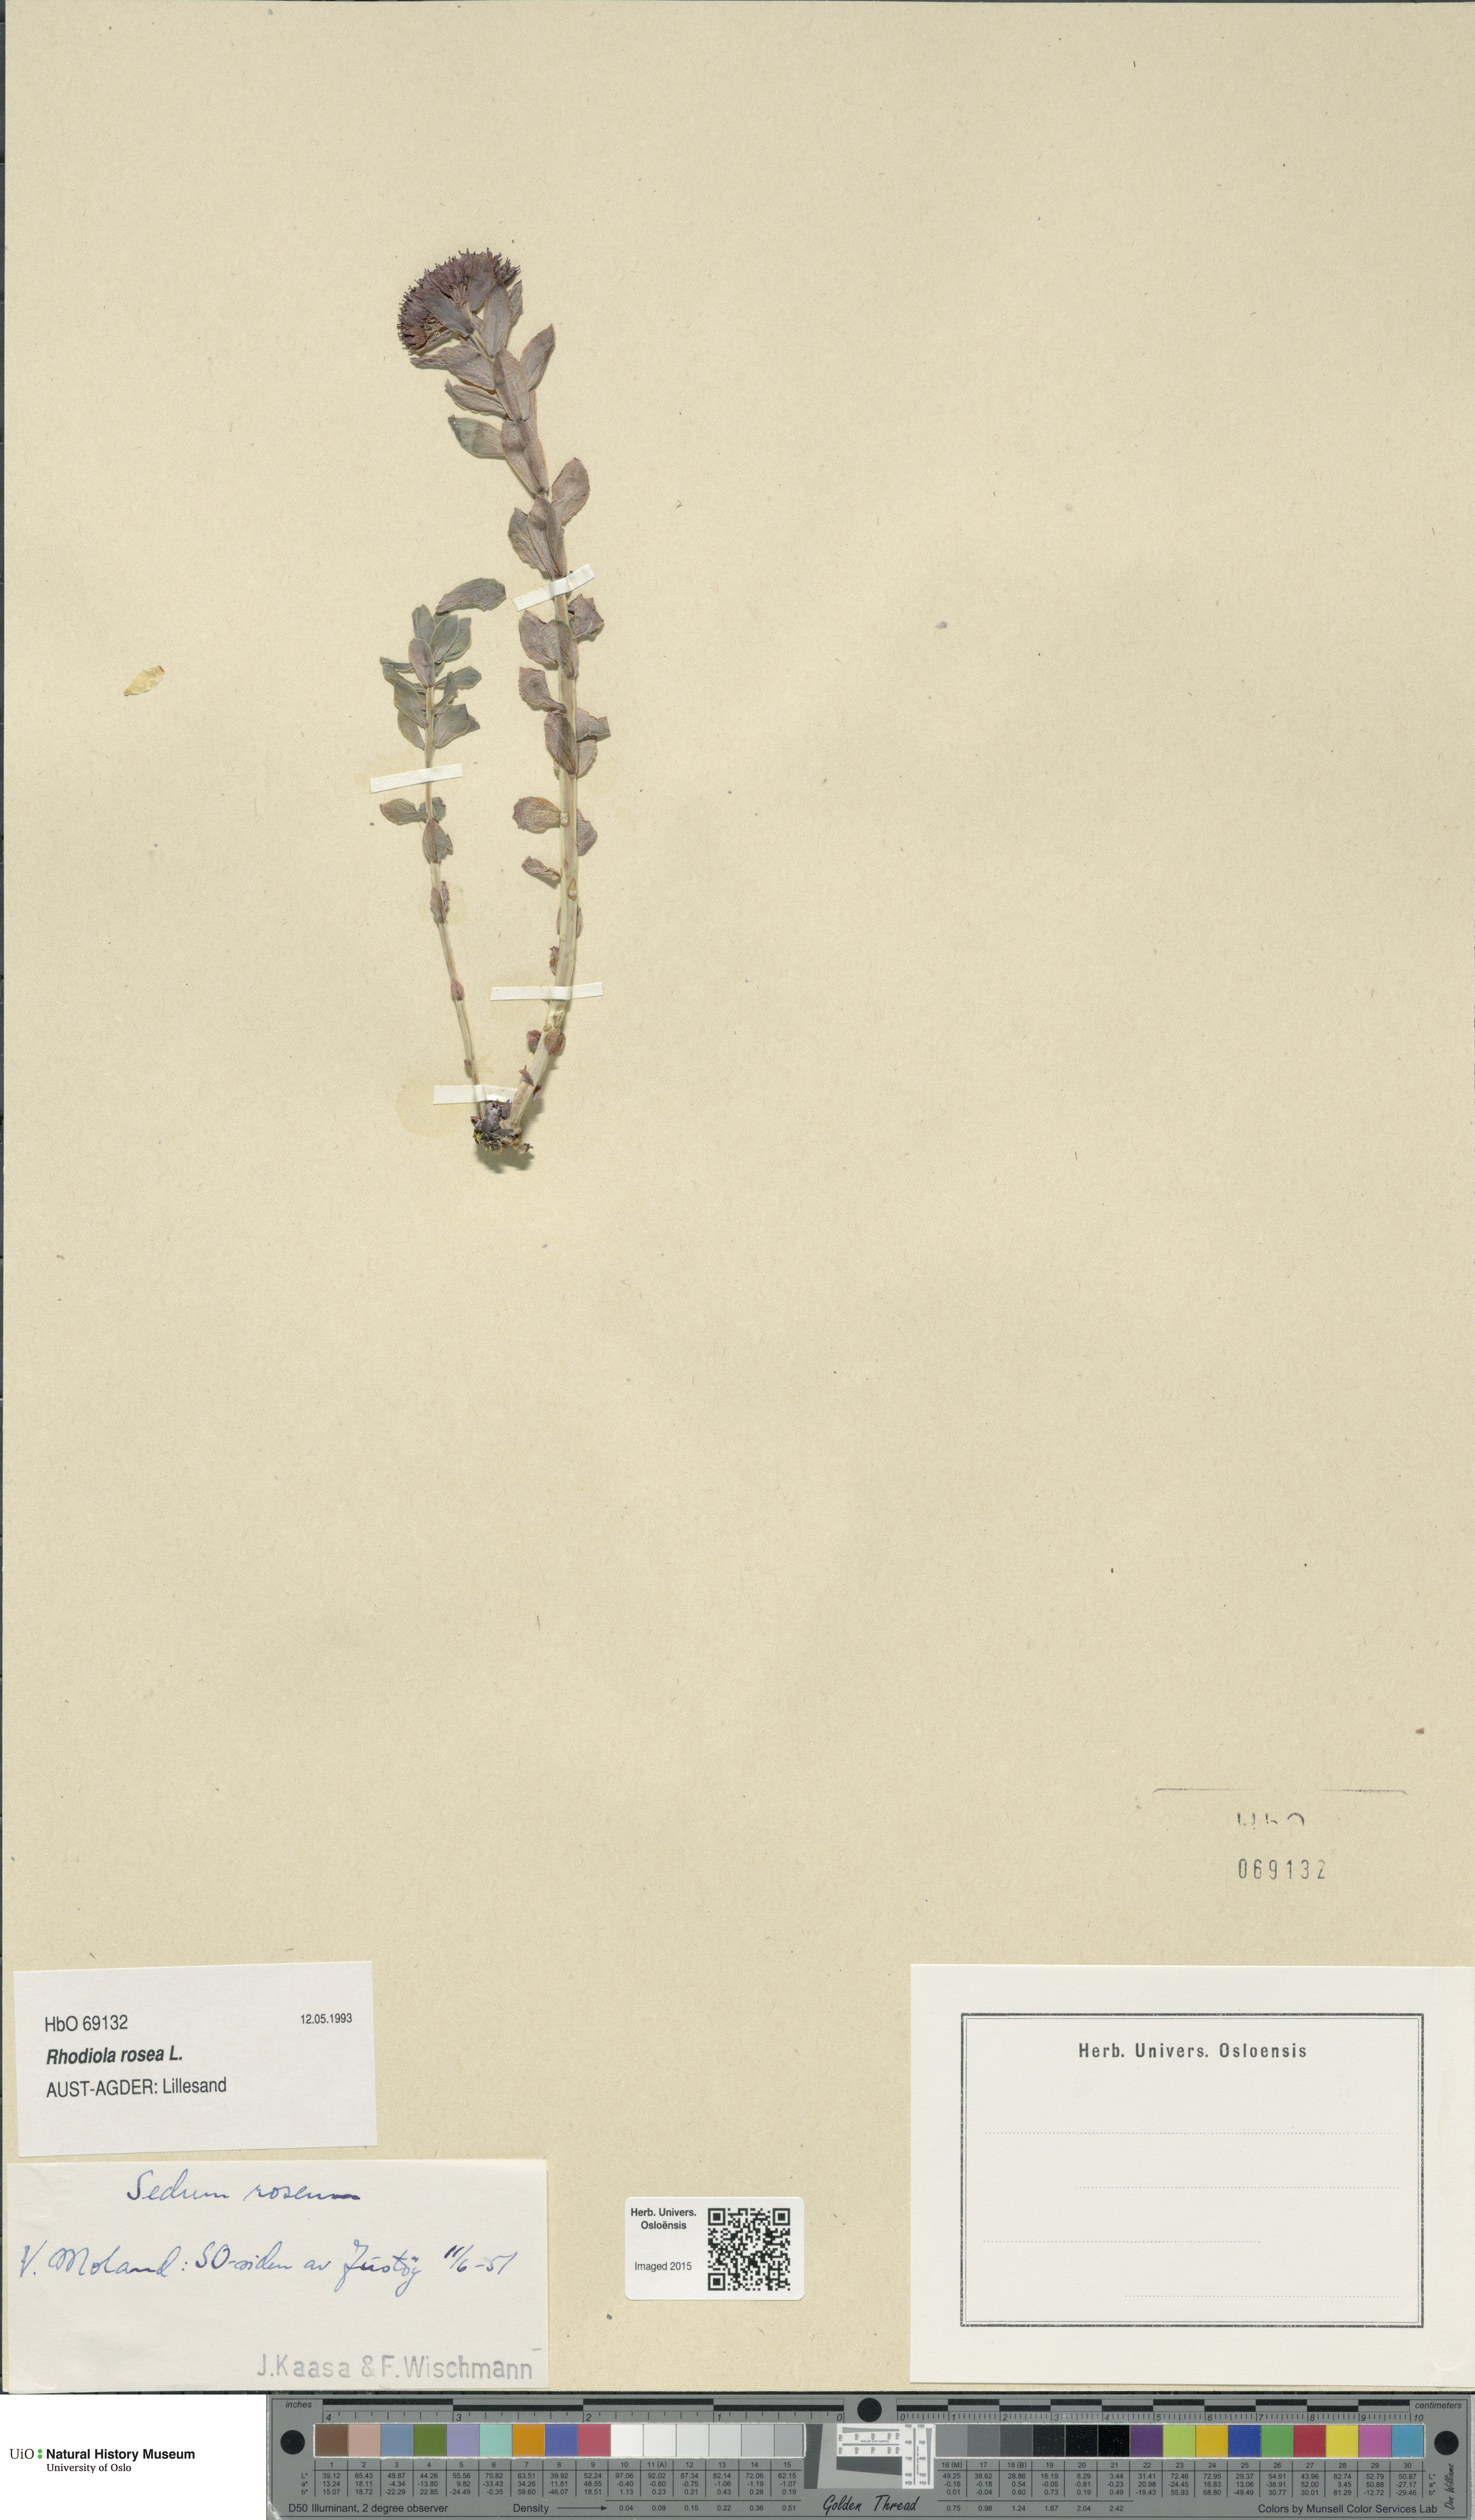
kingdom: Plantae
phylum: Tracheophyta
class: Magnoliopsida
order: Saxifragales
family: Crassulaceae
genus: Rhodiola
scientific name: Rhodiola rosea
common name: Roseroot
